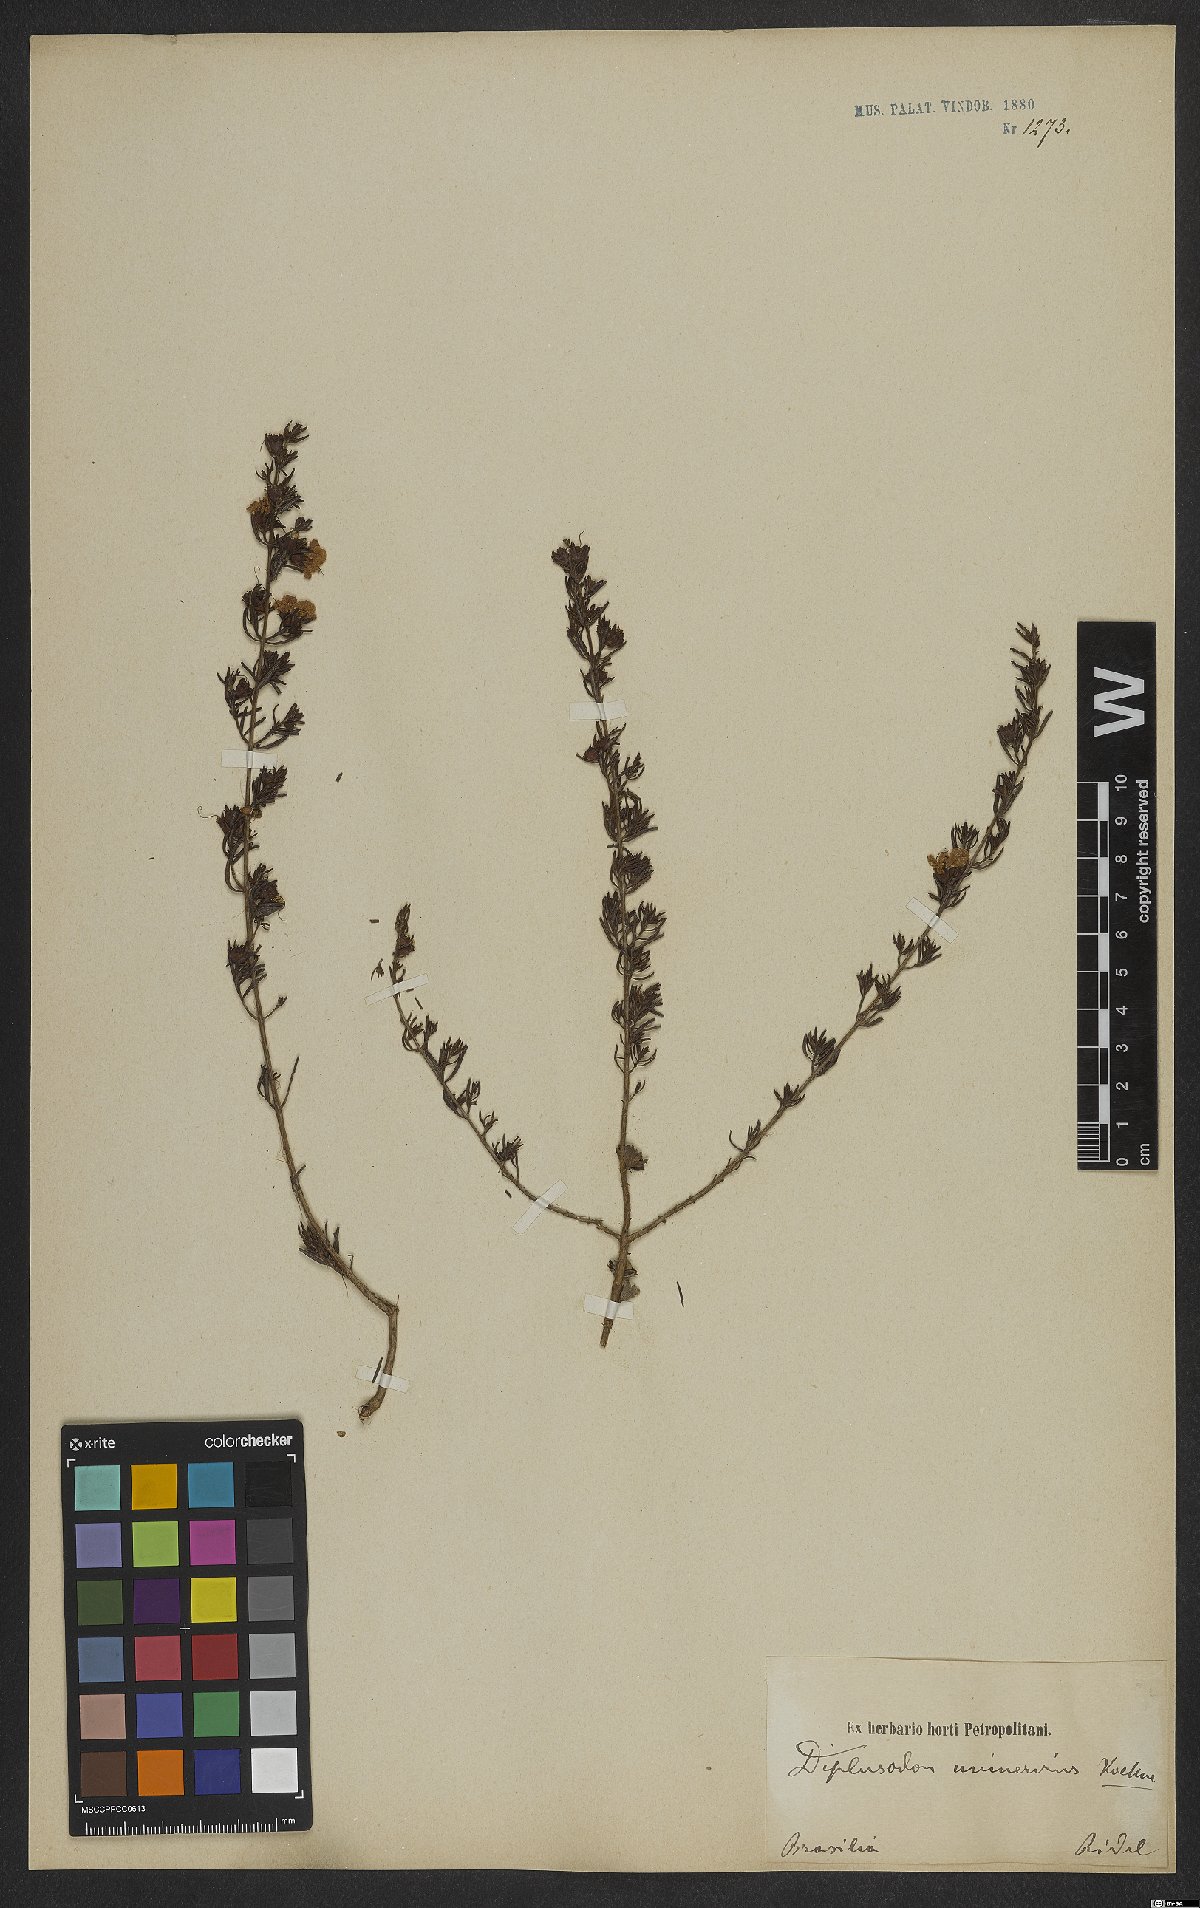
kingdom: Plantae
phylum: Tracheophyta
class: Magnoliopsida
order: Myrtales
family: Lythraceae
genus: Diplusodon
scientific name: Diplusodon uninervius
